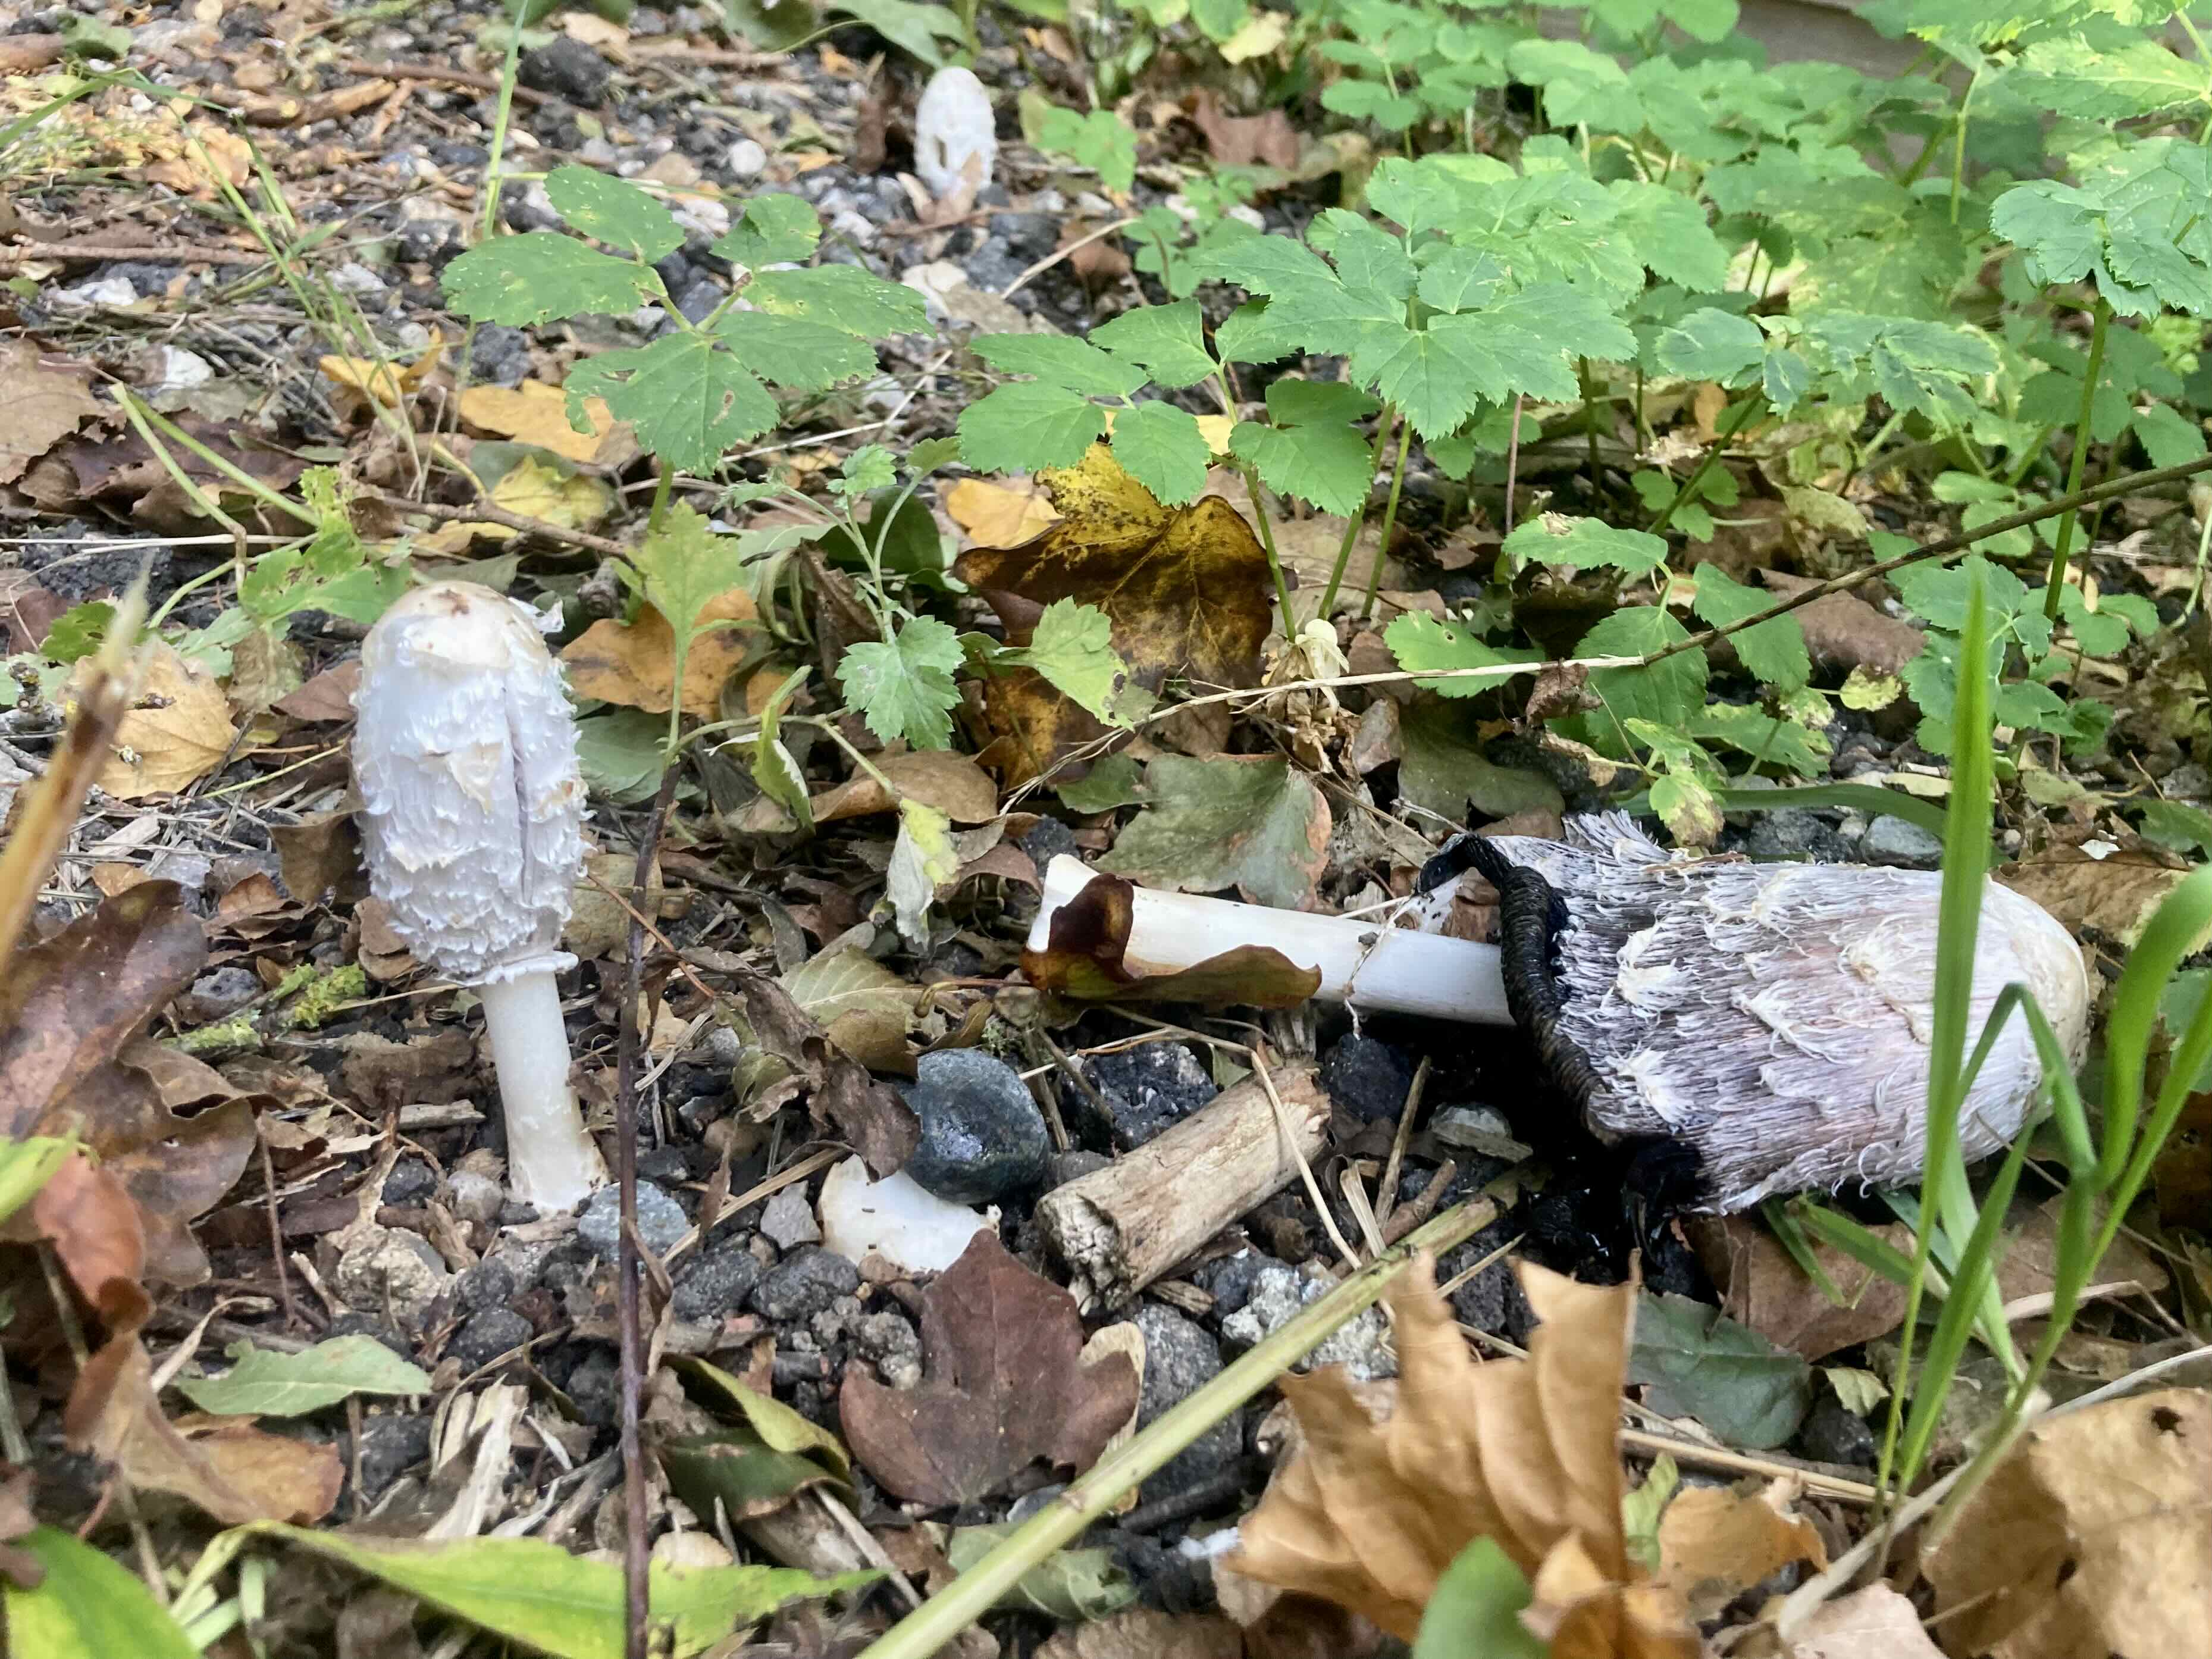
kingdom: Fungi
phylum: Basidiomycota
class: Agaricomycetes
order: Agaricales
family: Agaricaceae
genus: Coprinus
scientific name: Coprinus comatus
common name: stor parykhat
